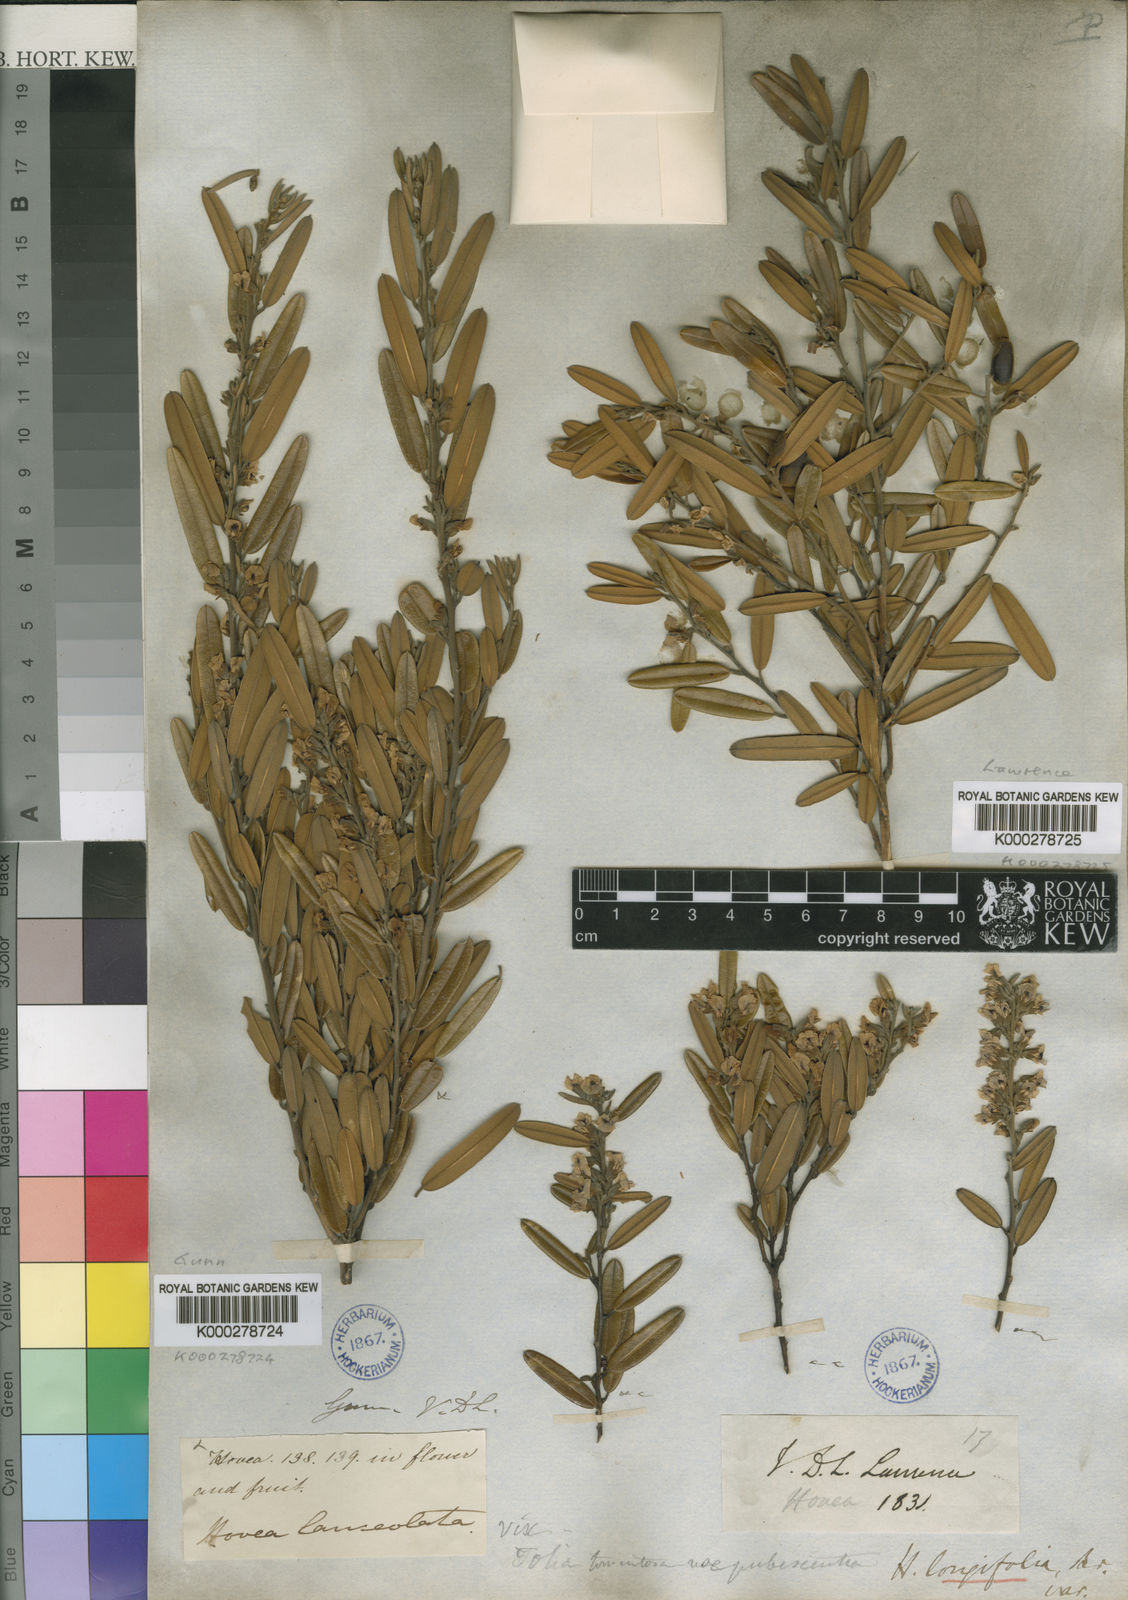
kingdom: Plantae
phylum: Tracheophyta
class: Magnoliopsida
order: Fabales
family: Fabaceae
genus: Hovea
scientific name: Hovea lanceolata
